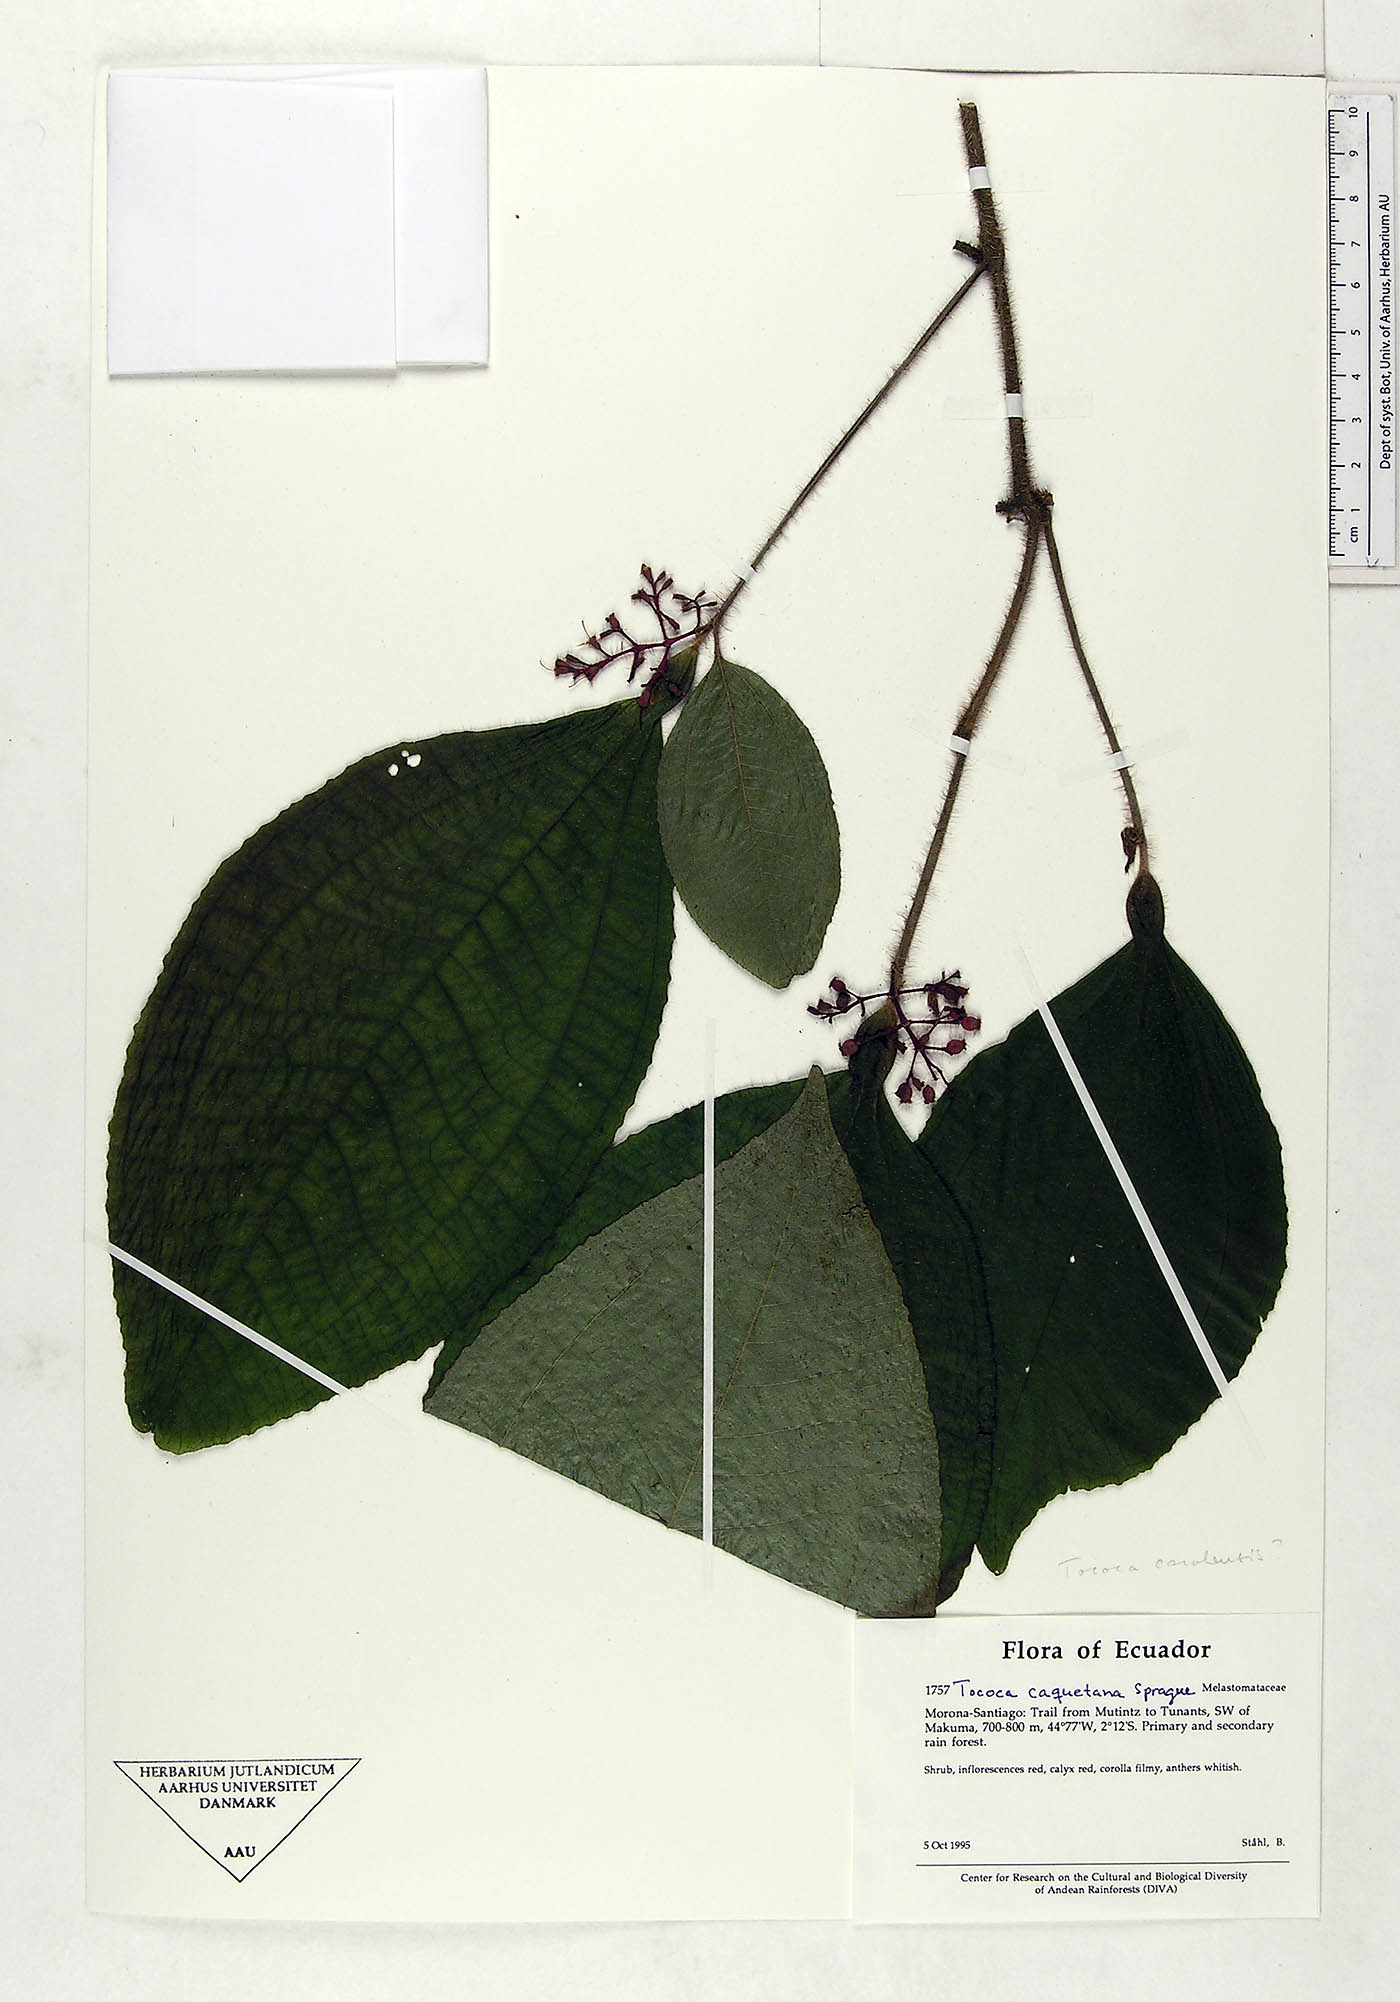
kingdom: Plantae
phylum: Tracheophyta
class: Magnoliopsida
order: Myrtales
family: Melastomataceae
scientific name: Melastomataceae
